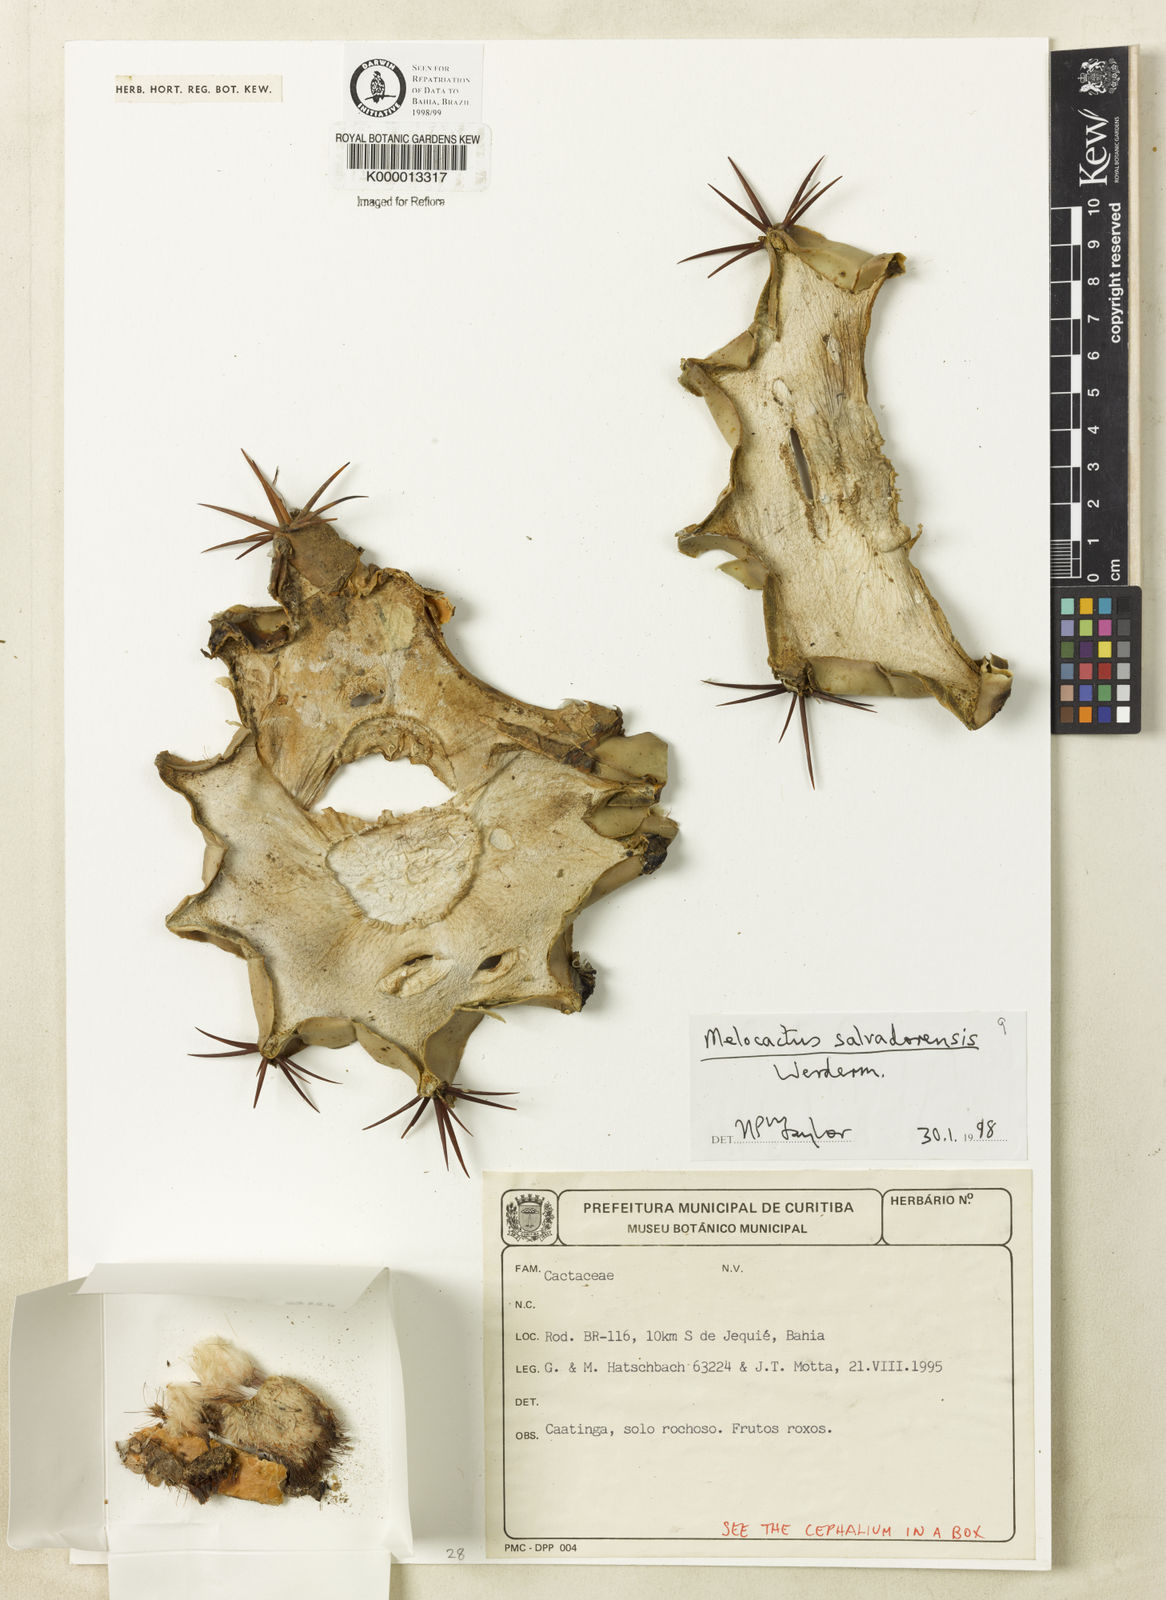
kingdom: Plantae
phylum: Tracheophyta
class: Magnoliopsida
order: Caryophyllales
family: Cactaceae
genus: Melocactus
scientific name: Melocactus salvadorensis
